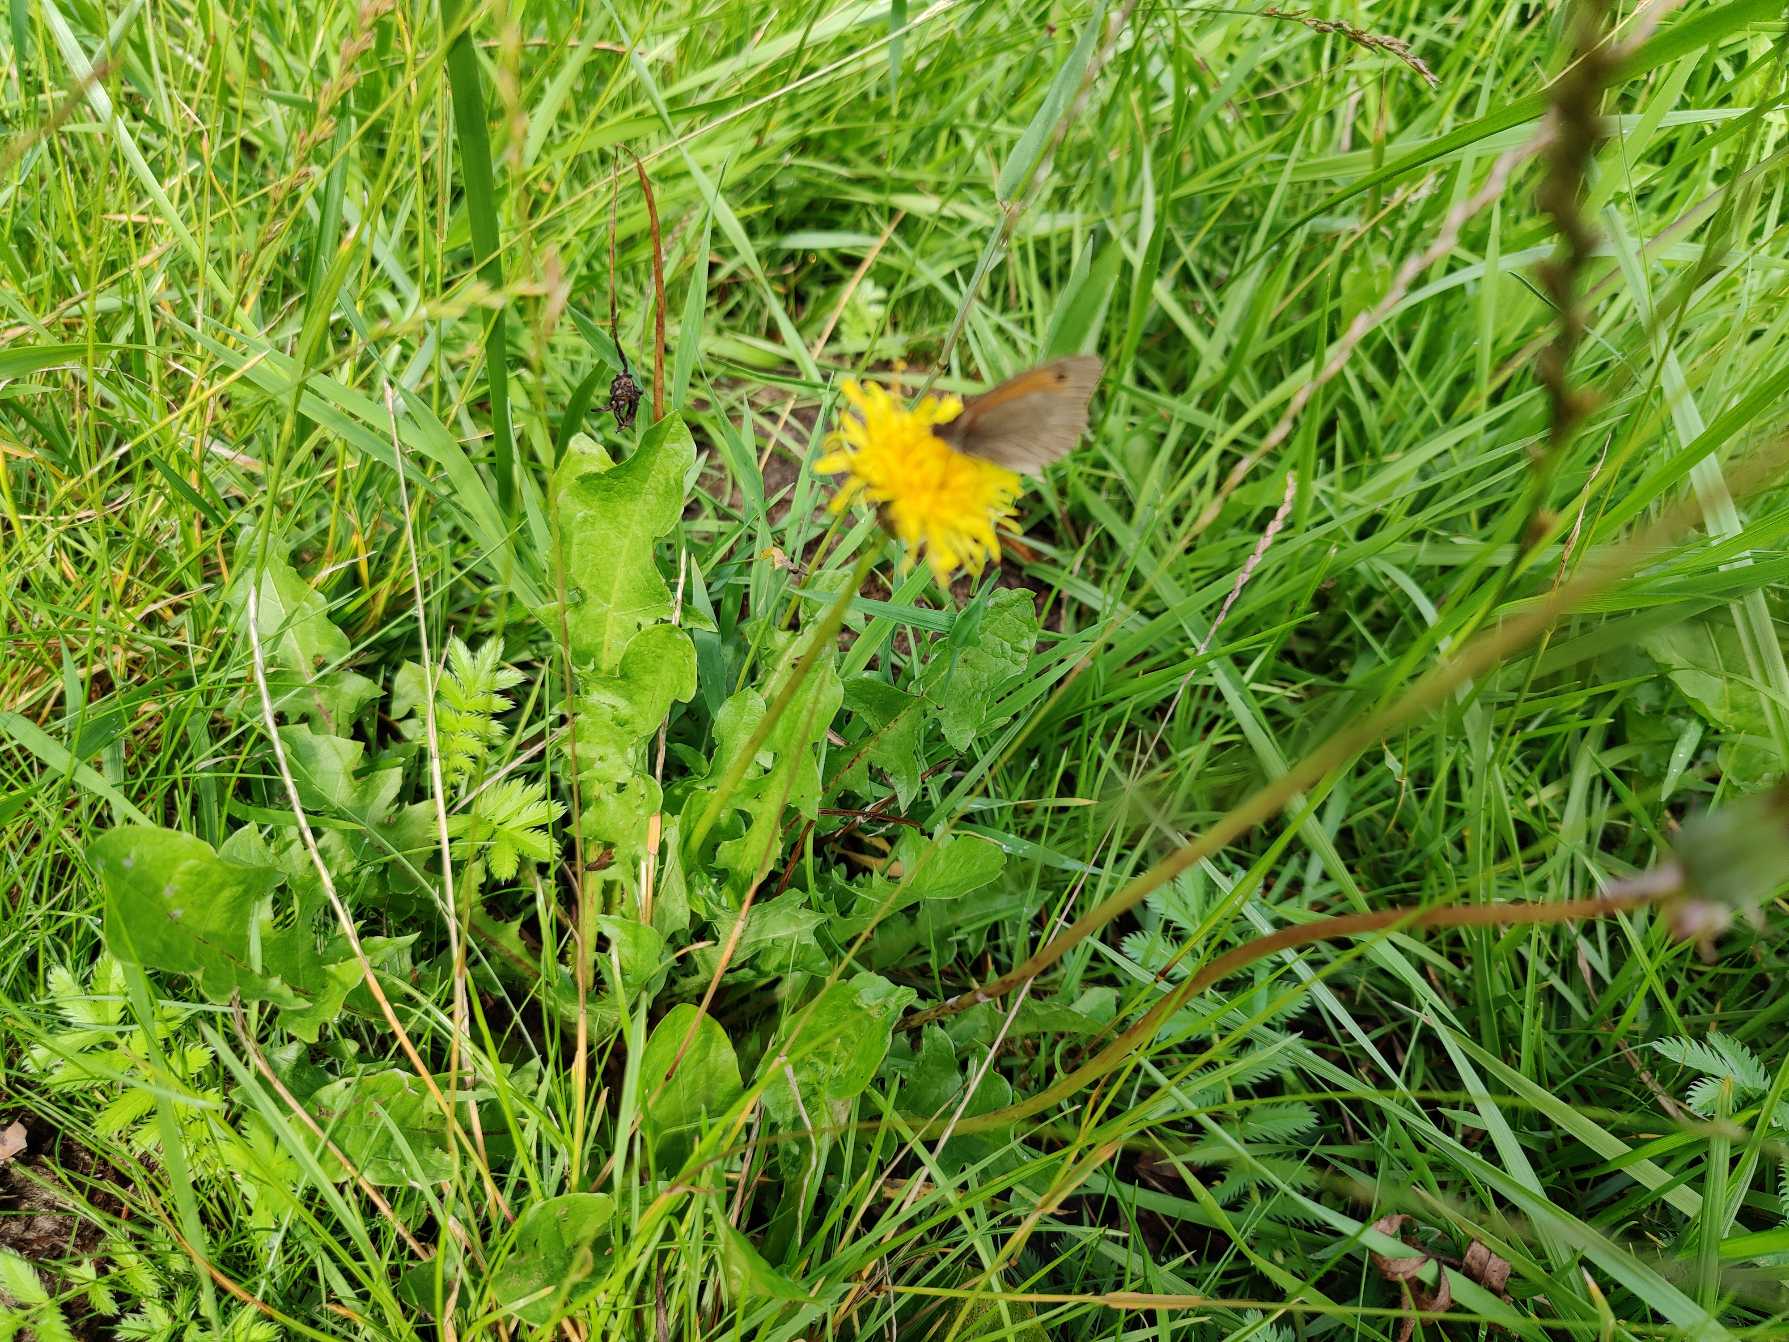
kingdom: Animalia
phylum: Arthropoda
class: Insecta
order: Lepidoptera
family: Nymphalidae
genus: Maniola
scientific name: Maniola jurtina
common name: Græsrandøje
